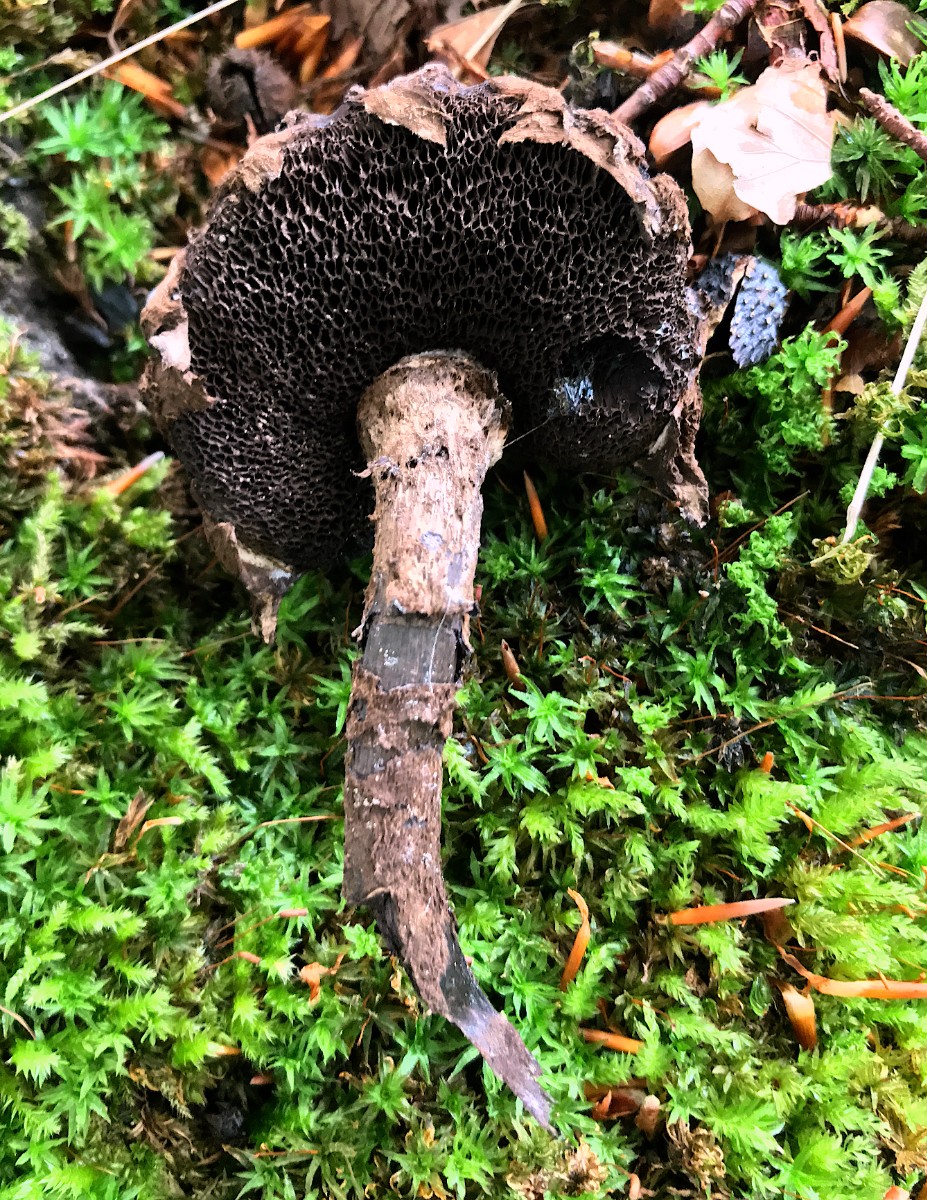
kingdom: Fungi
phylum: Basidiomycota
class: Agaricomycetes
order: Boletales
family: Boletaceae
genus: Strobilomyces
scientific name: Strobilomyces strobilaceus
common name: koglerørhat
